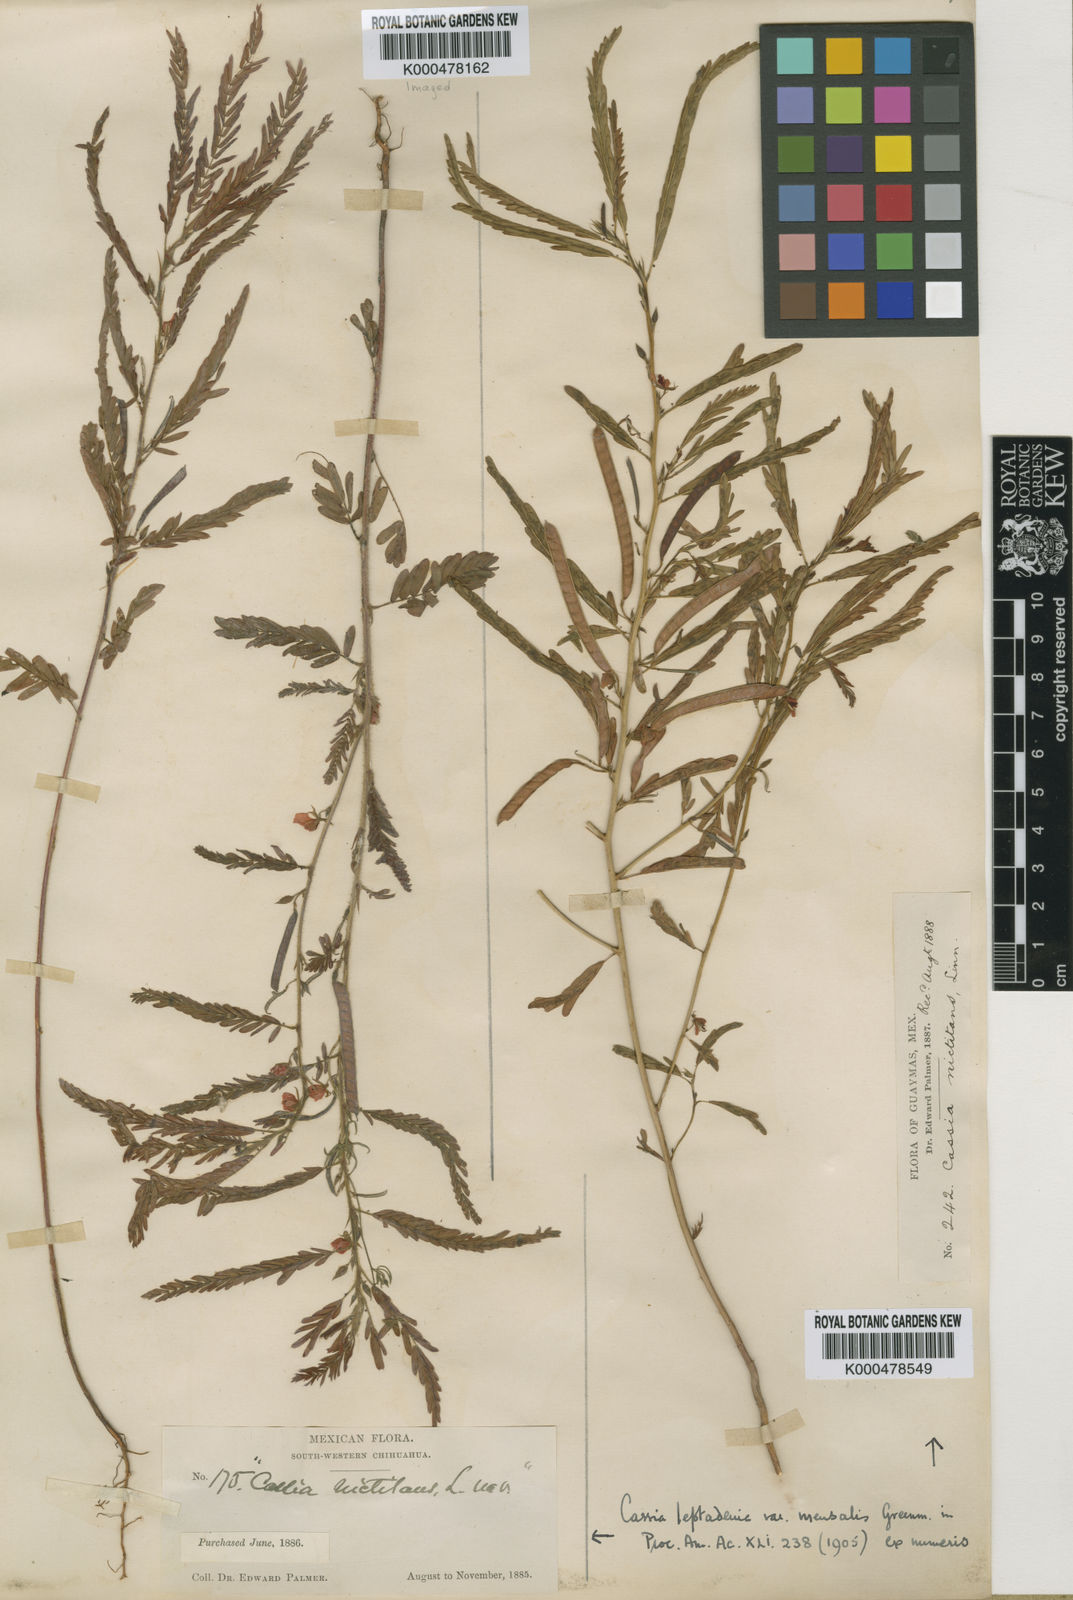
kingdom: Plantae
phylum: Tracheophyta
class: Magnoliopsida
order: Fabales
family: Fabaceae
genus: Chamaecrista
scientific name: Chamaecrista nictitans
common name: Sensitive cassia
